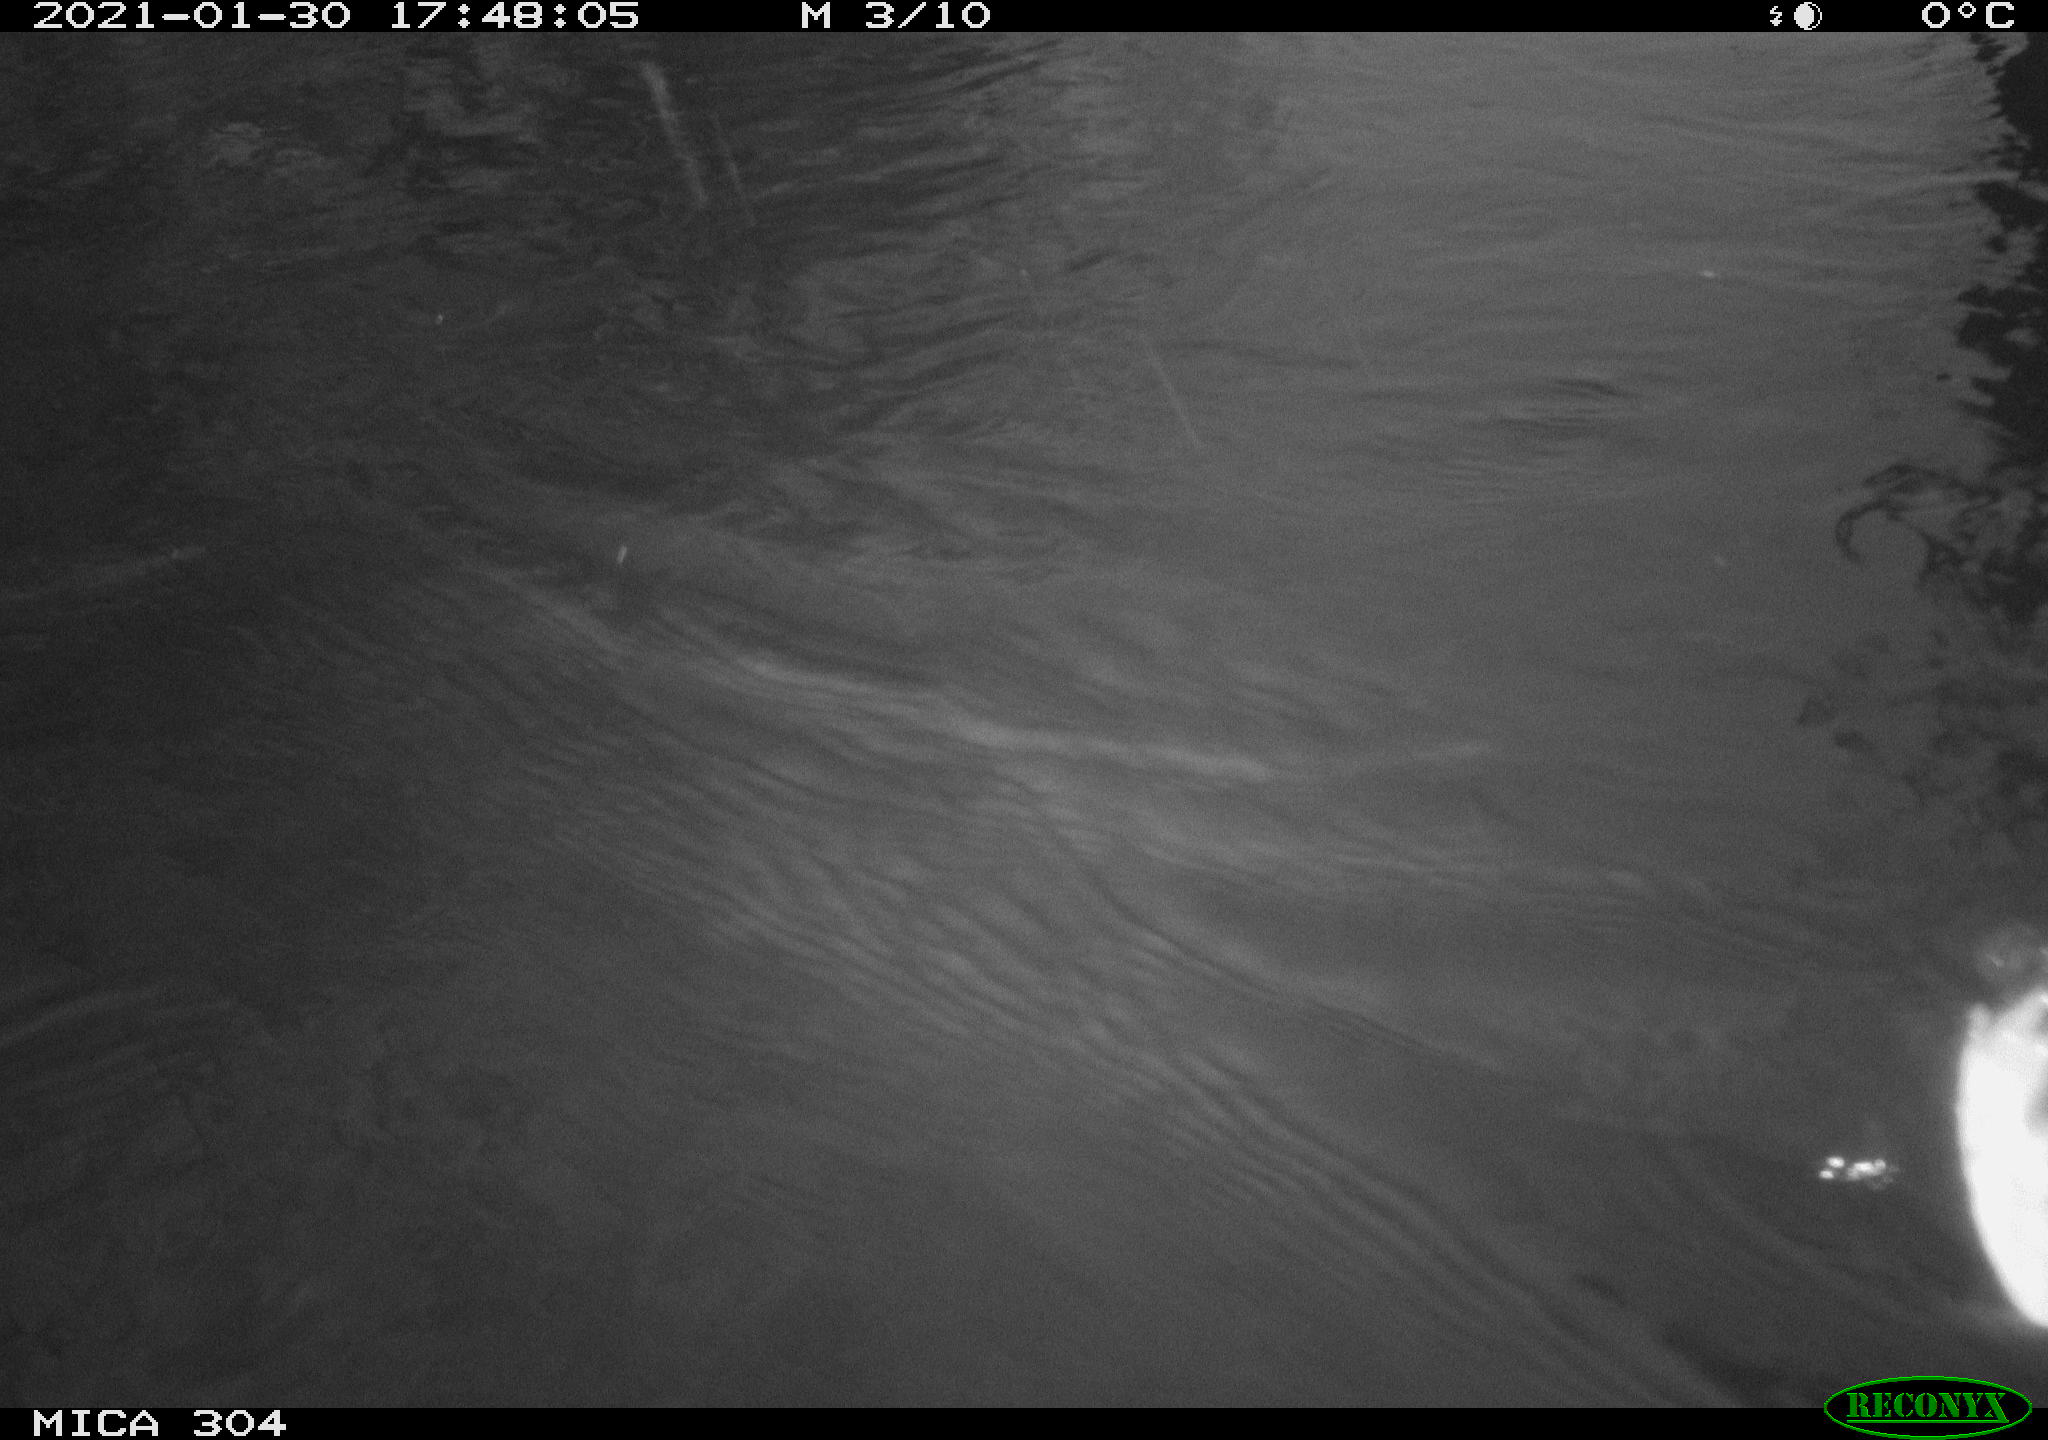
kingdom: Animalia
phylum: Chordata
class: Aves
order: Gruiformes
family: Rallidae
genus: Fulica
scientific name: Fulica atra
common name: Eurasian coot
